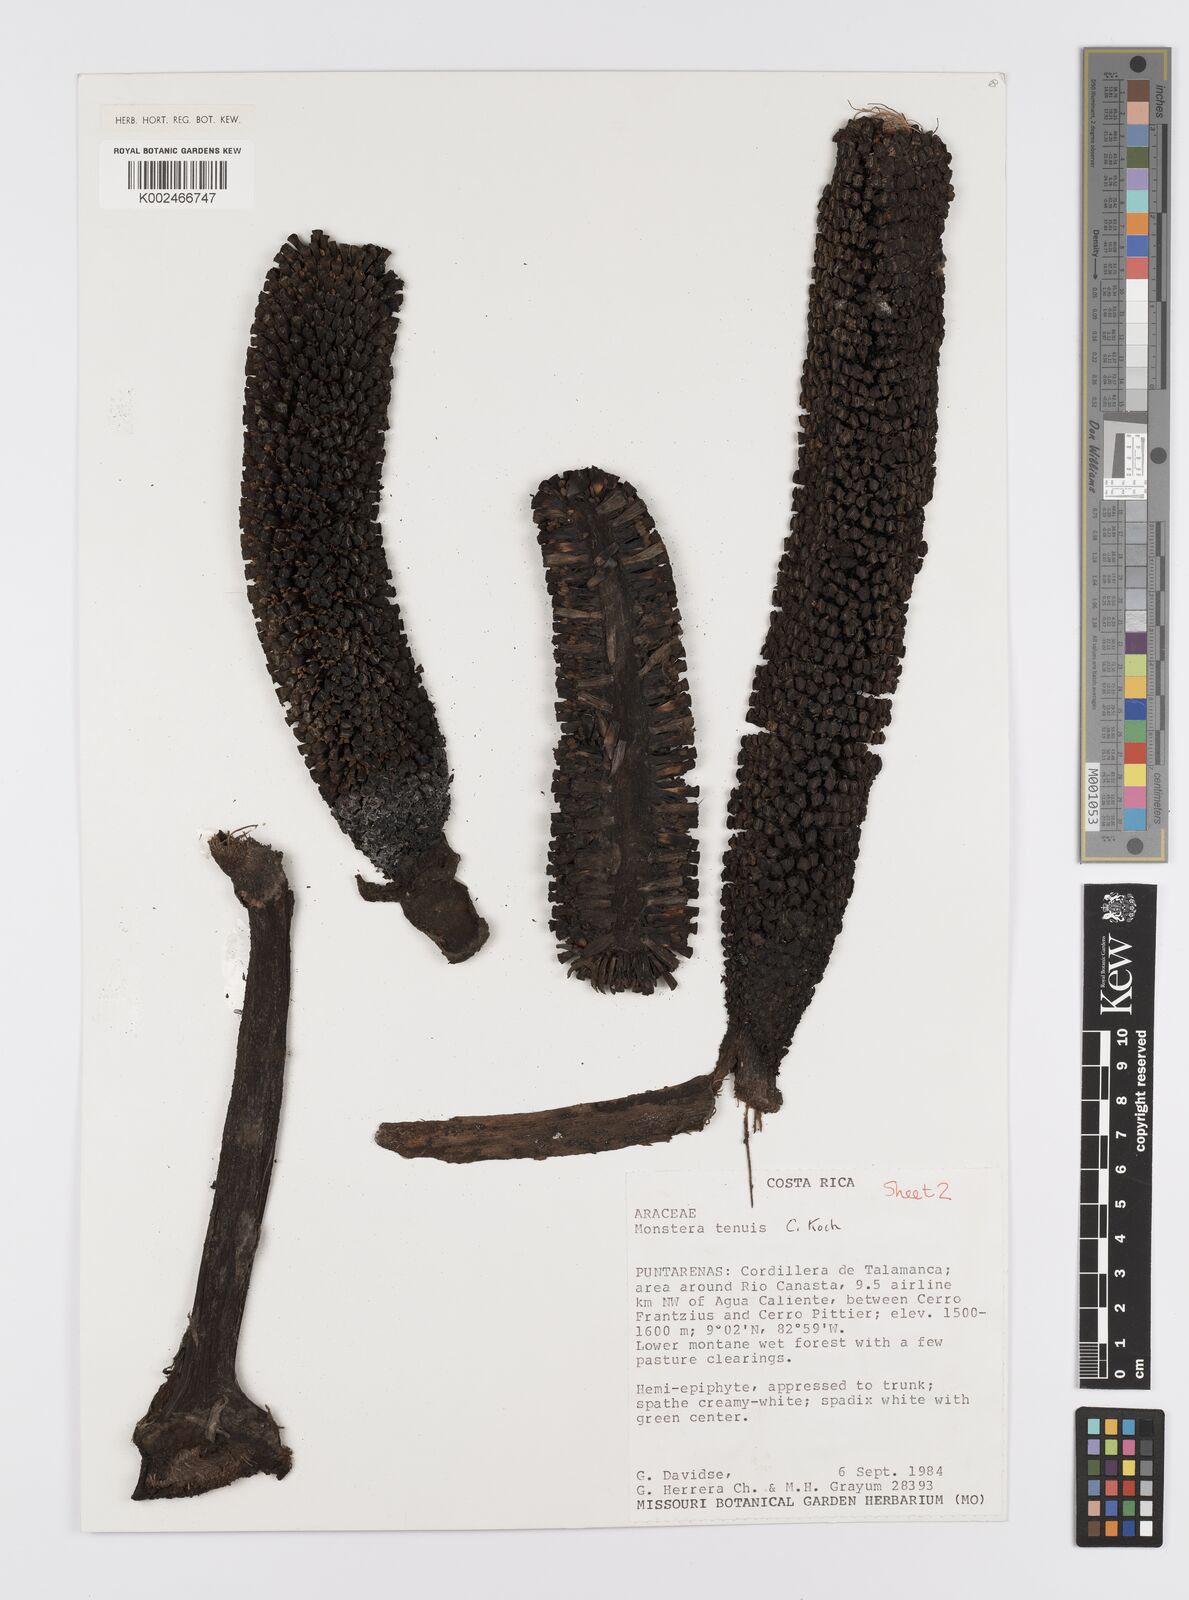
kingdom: Plantae
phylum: Tracheophyta
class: Liliopsida
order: Alismatales
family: Araceae
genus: Monstera
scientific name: Monstera tenuis
